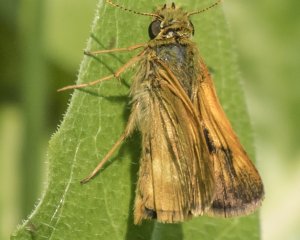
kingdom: Animalia
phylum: Arthropoda
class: Insecta
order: Lepidoptera
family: Hesperiidae
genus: Polites
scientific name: Polites
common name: Long Dash Skipper
